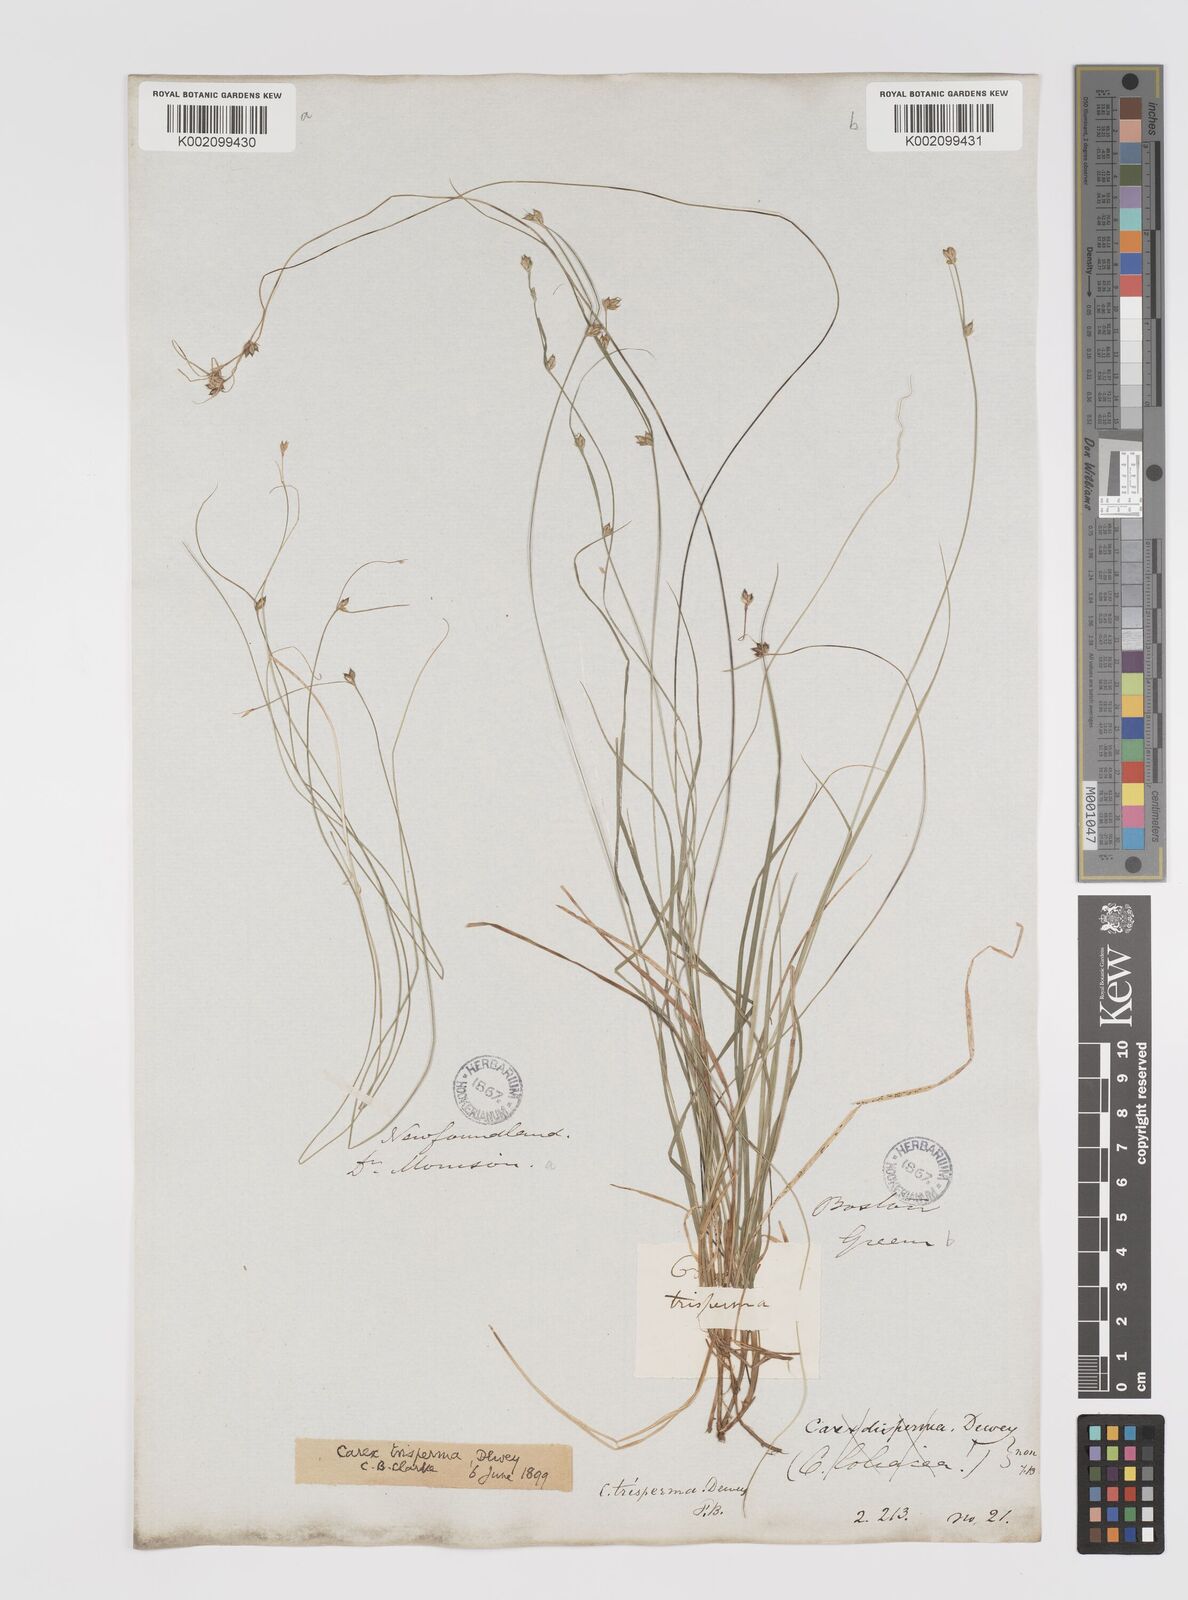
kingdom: Plantae
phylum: Tracheophyta
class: Liliopsida
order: Poales
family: Cyperaceae
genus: Carex
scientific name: Carex trisperma
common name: Three-seeded sedge
